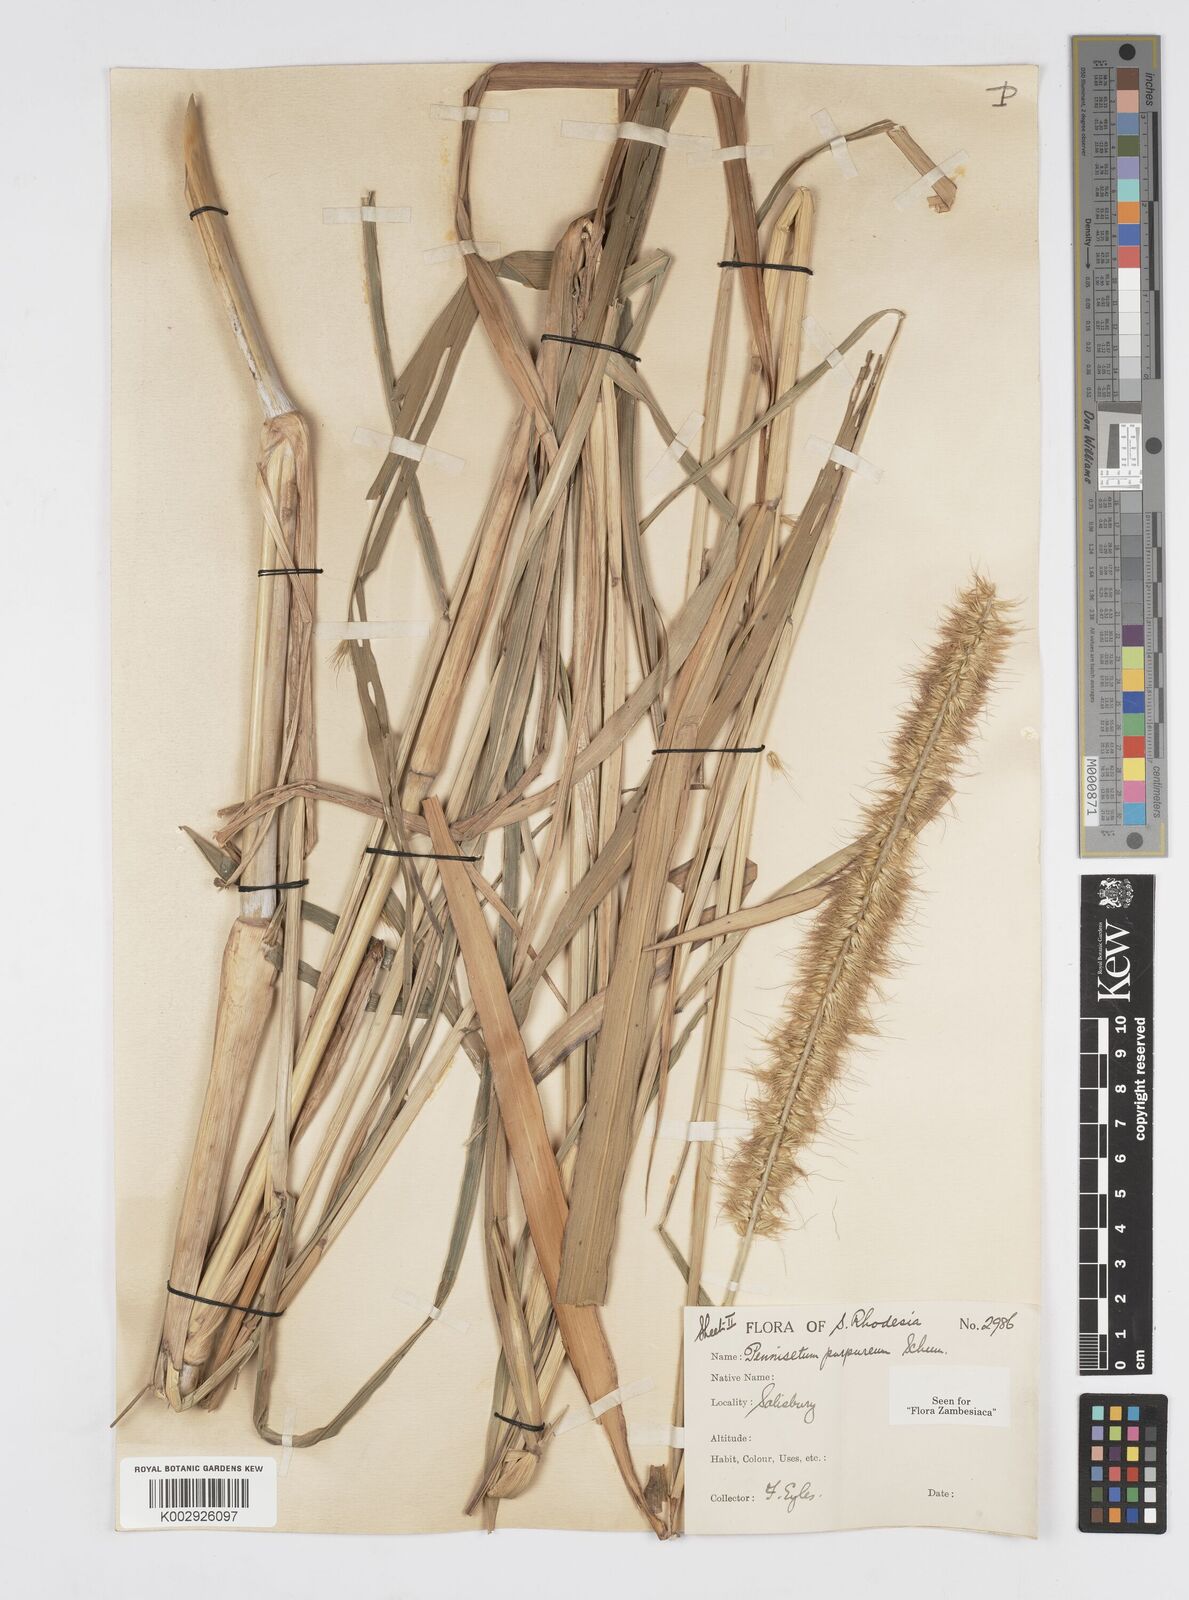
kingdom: Plantae
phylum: Tracheophyta
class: Liliopsida
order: Poales
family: Poaceae
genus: Cenchrus
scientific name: Cenchrus purpureus
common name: Elephant grass
